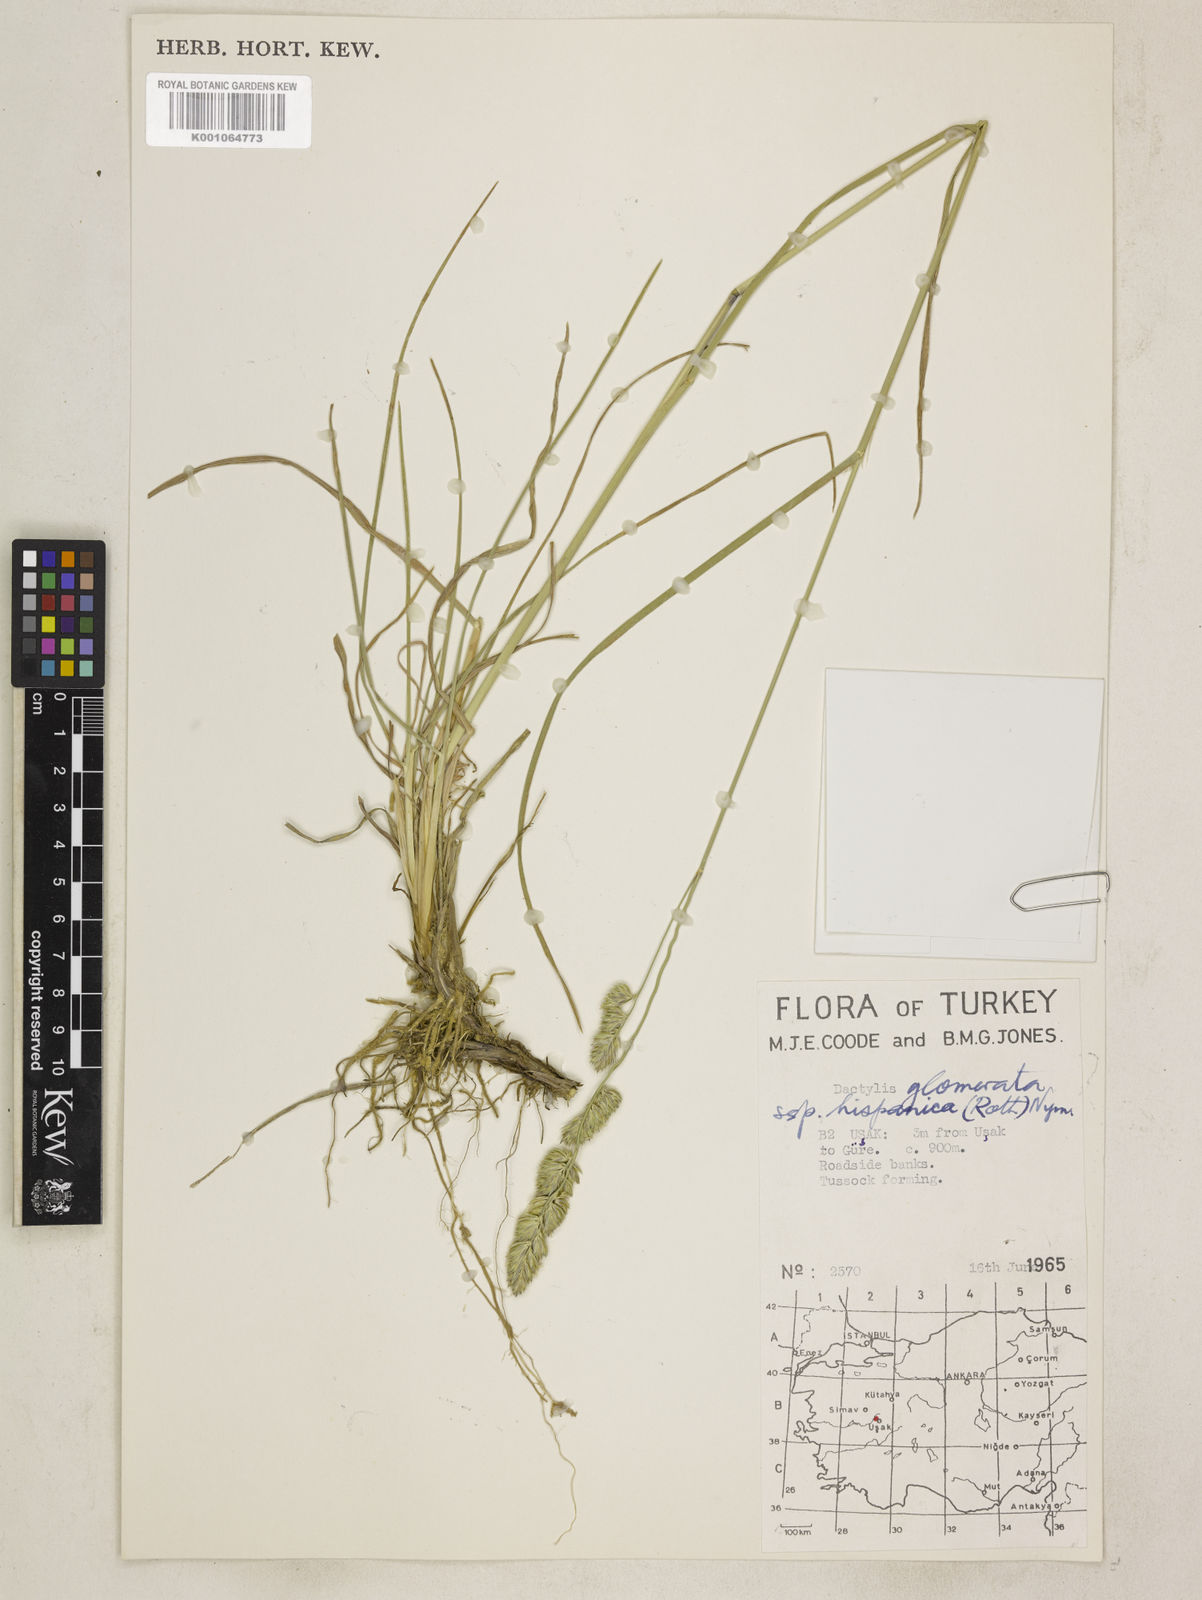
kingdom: Plantae
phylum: Tracheophyta
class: Liliopsida
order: Poales
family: Poaceae
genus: Dactylis
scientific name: Dactylis glomerata
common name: Orchardgrass
